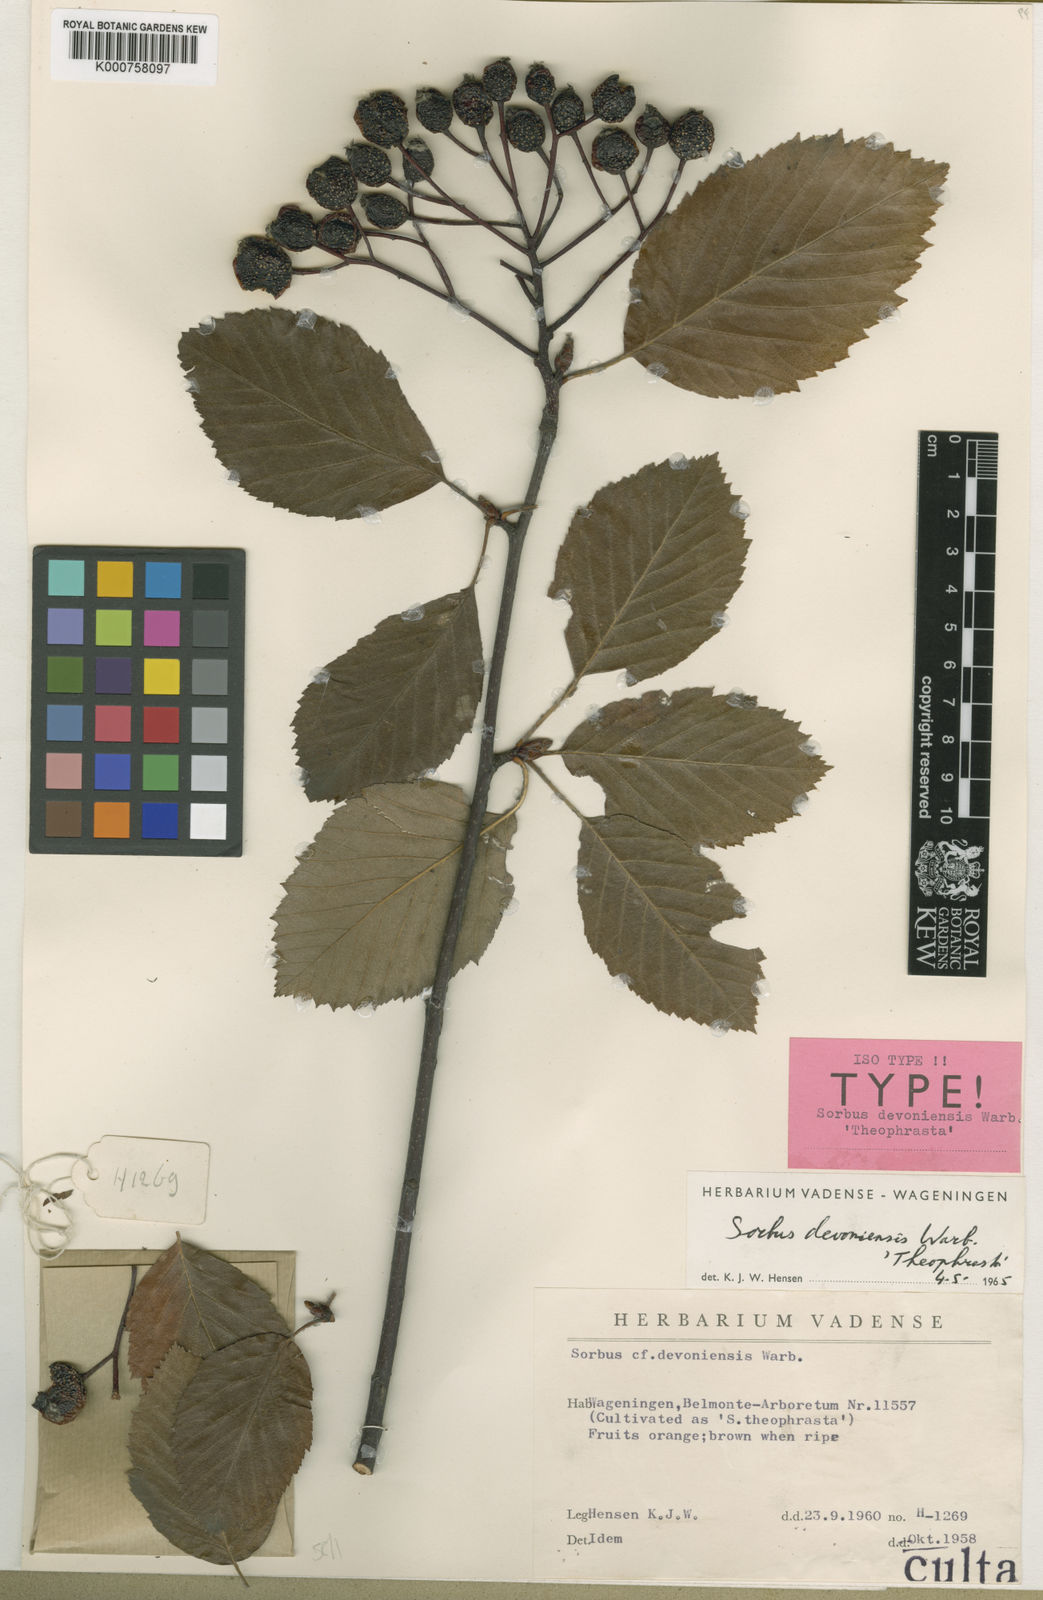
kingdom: Plantae
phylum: Tracheophyta
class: Magnoliopsida
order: Rosales
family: Rosaceae
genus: Karpatiosorbus
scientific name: Karpatiosorbus devoniensis
